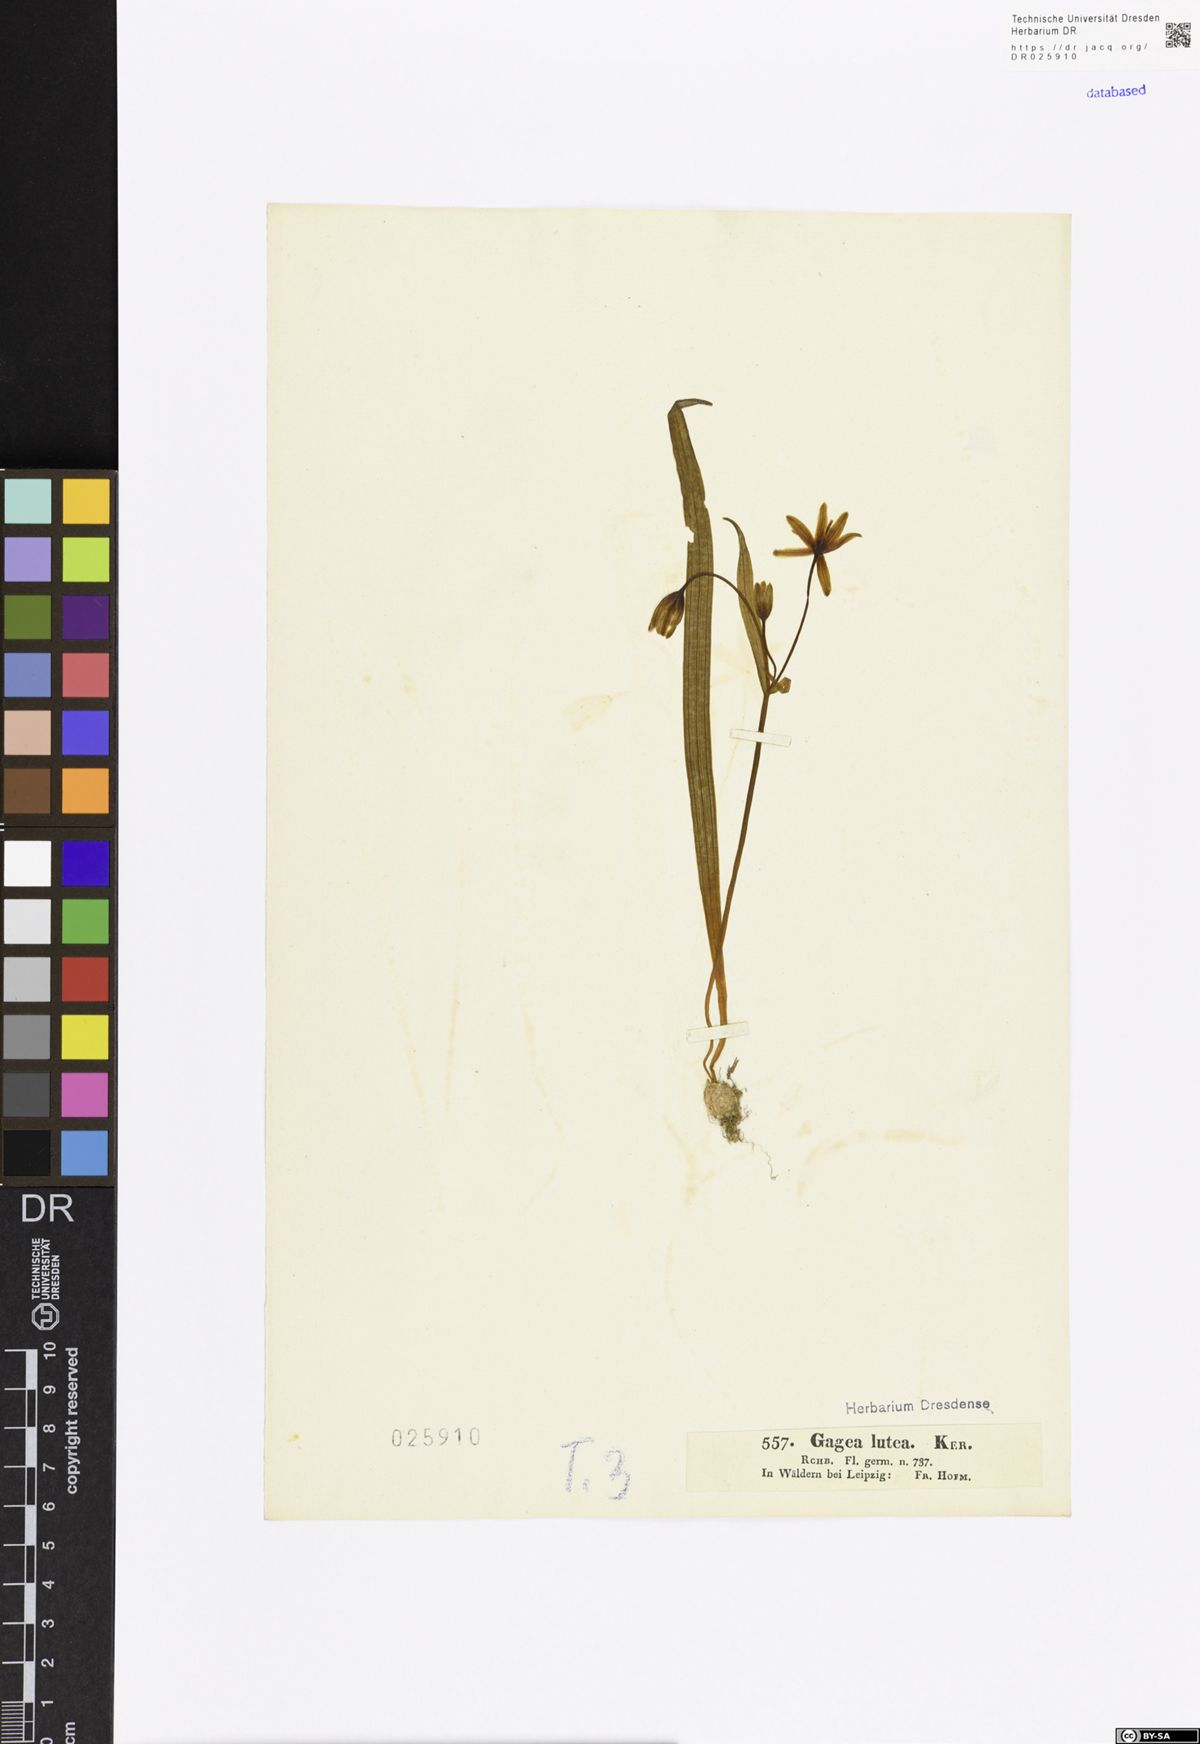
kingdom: Plantae
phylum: Tracheophyta
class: Liliopsida
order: Liliales
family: Liliaceae
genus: Gagea
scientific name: Gagea lutea
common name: Yellow star-of-bethlehem
